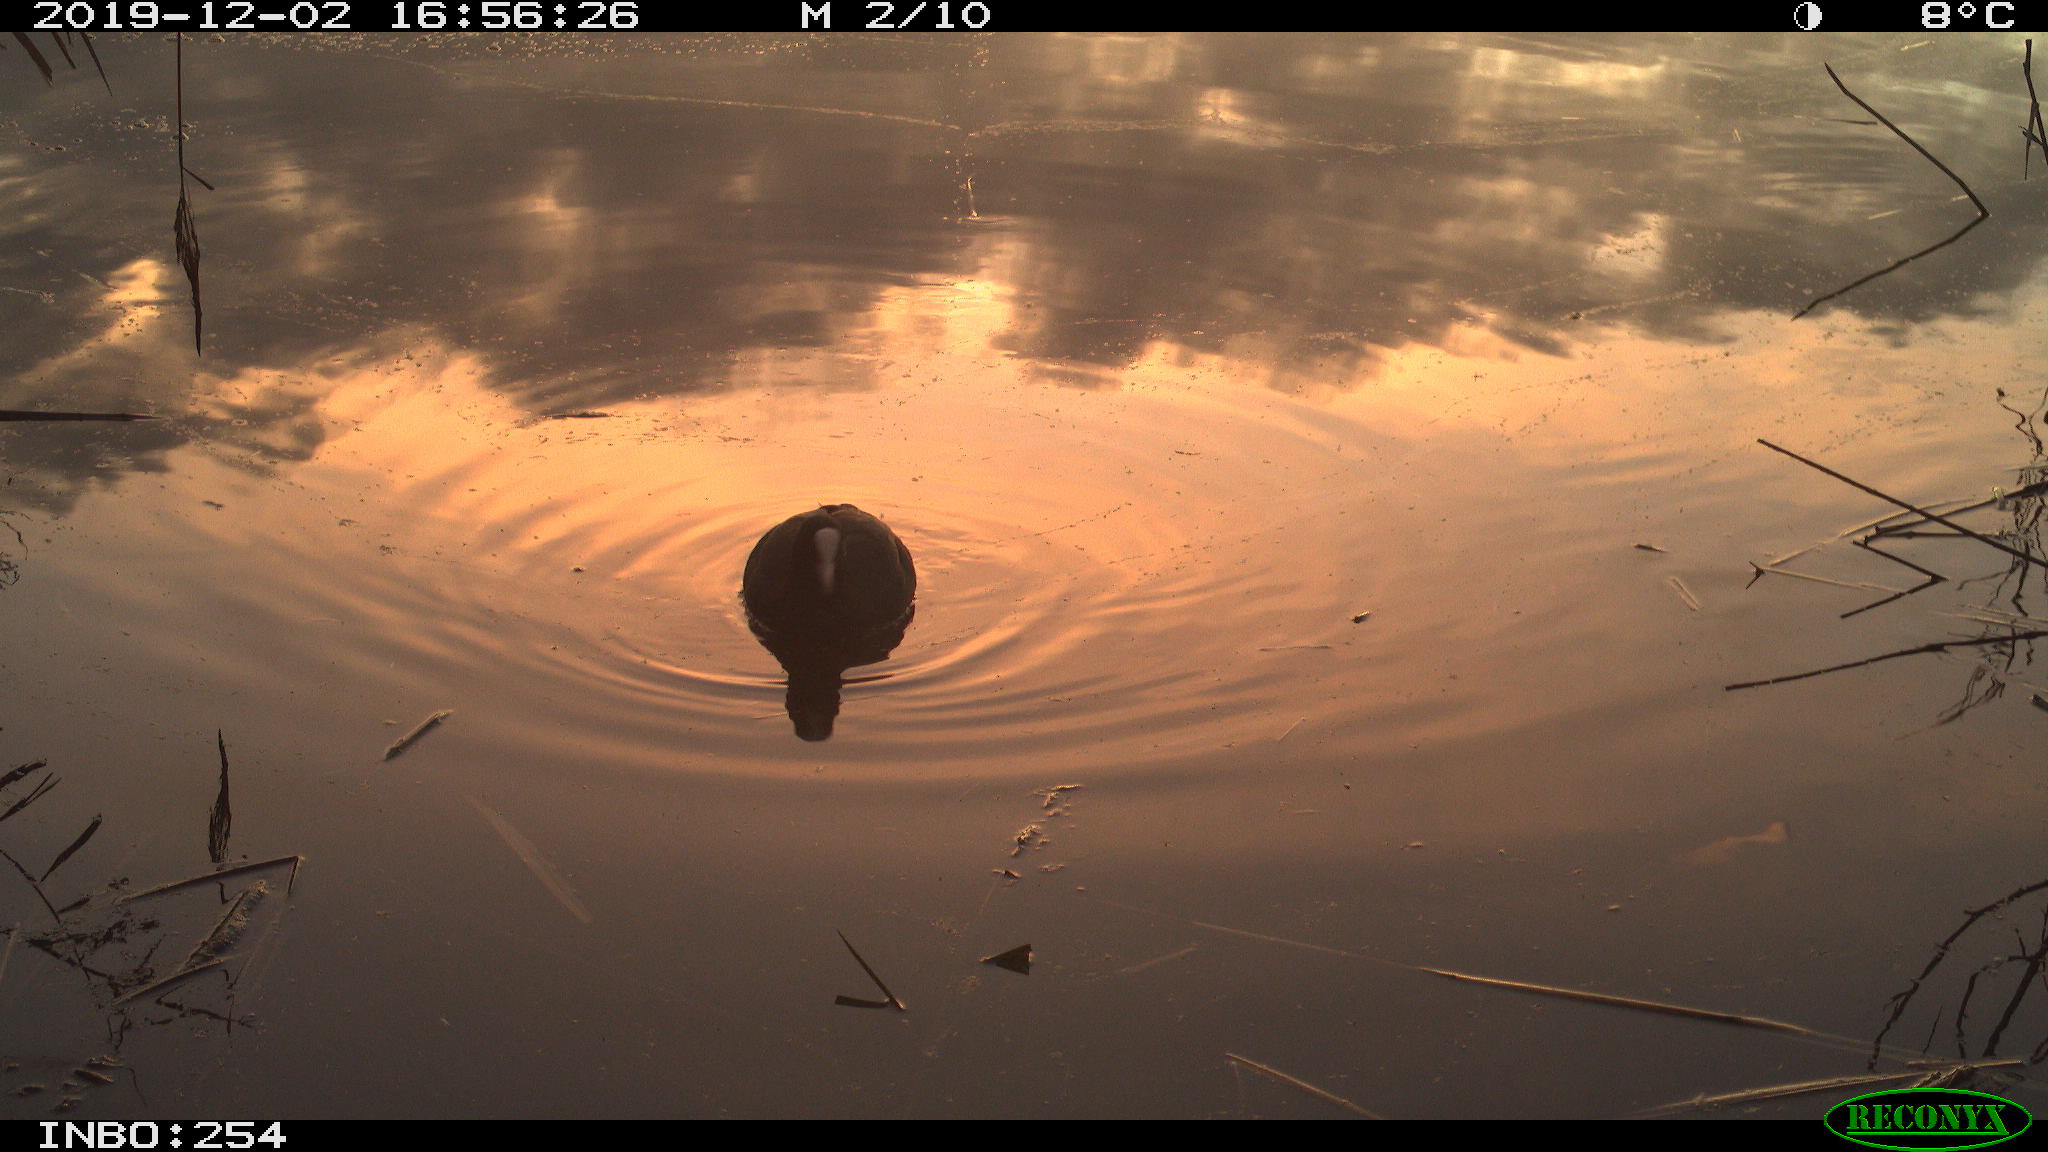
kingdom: Animalia
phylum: Chordata
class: Aves
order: Gruiformes
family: Rallidae
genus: Fulica
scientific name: Fulica atra
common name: Eurasian coot
